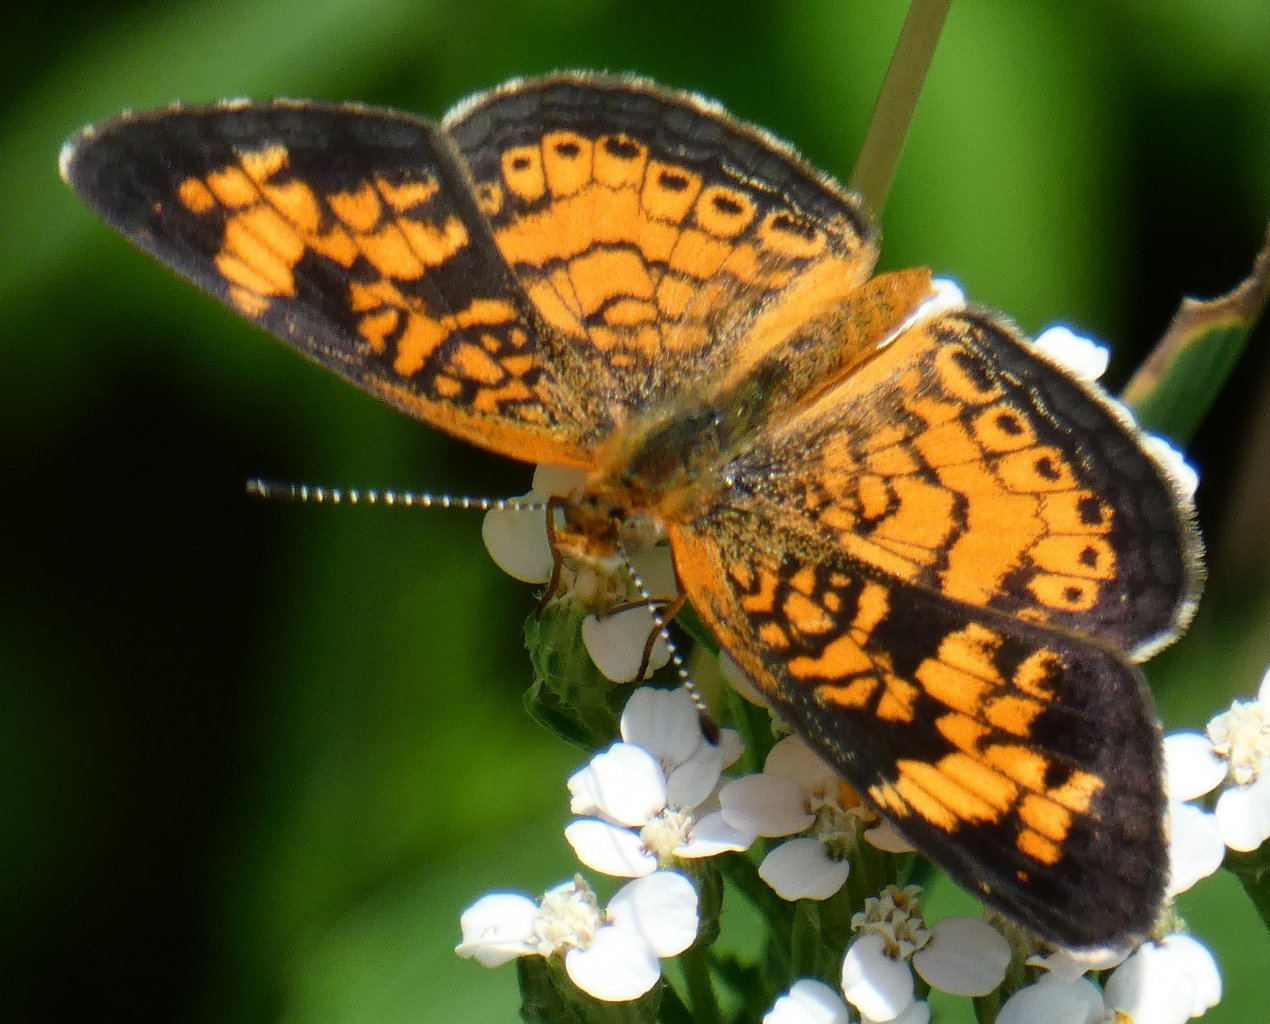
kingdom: Animalia
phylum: Arthropoda
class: Insecta
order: Lepidoptera
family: Nymphalidae
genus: Phyciodes
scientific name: Phyciodes tharos
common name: Pearl Crescent
